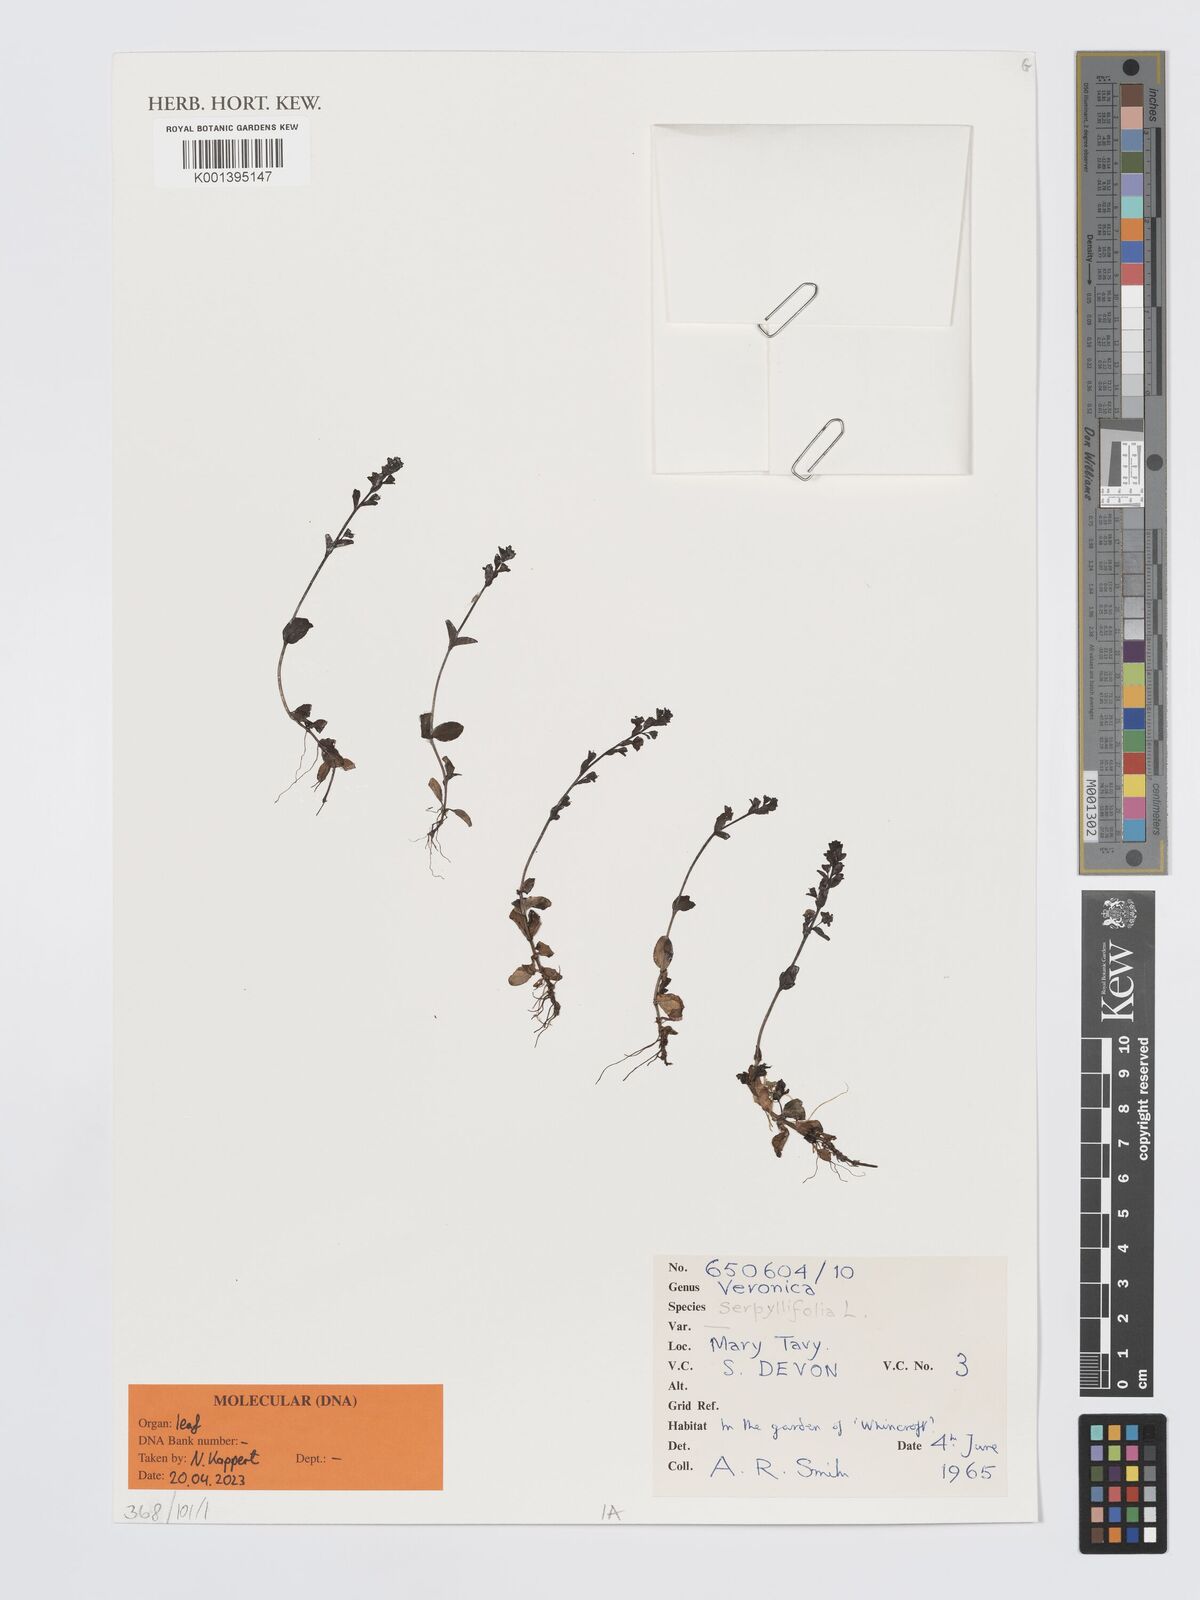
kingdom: Plantae
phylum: Tracheophyta
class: Magnoliopsida
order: Lamiales
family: Plantaginaceae
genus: Veronica
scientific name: Veronica serpyllifolia
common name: Thyme-leaved speedwell
